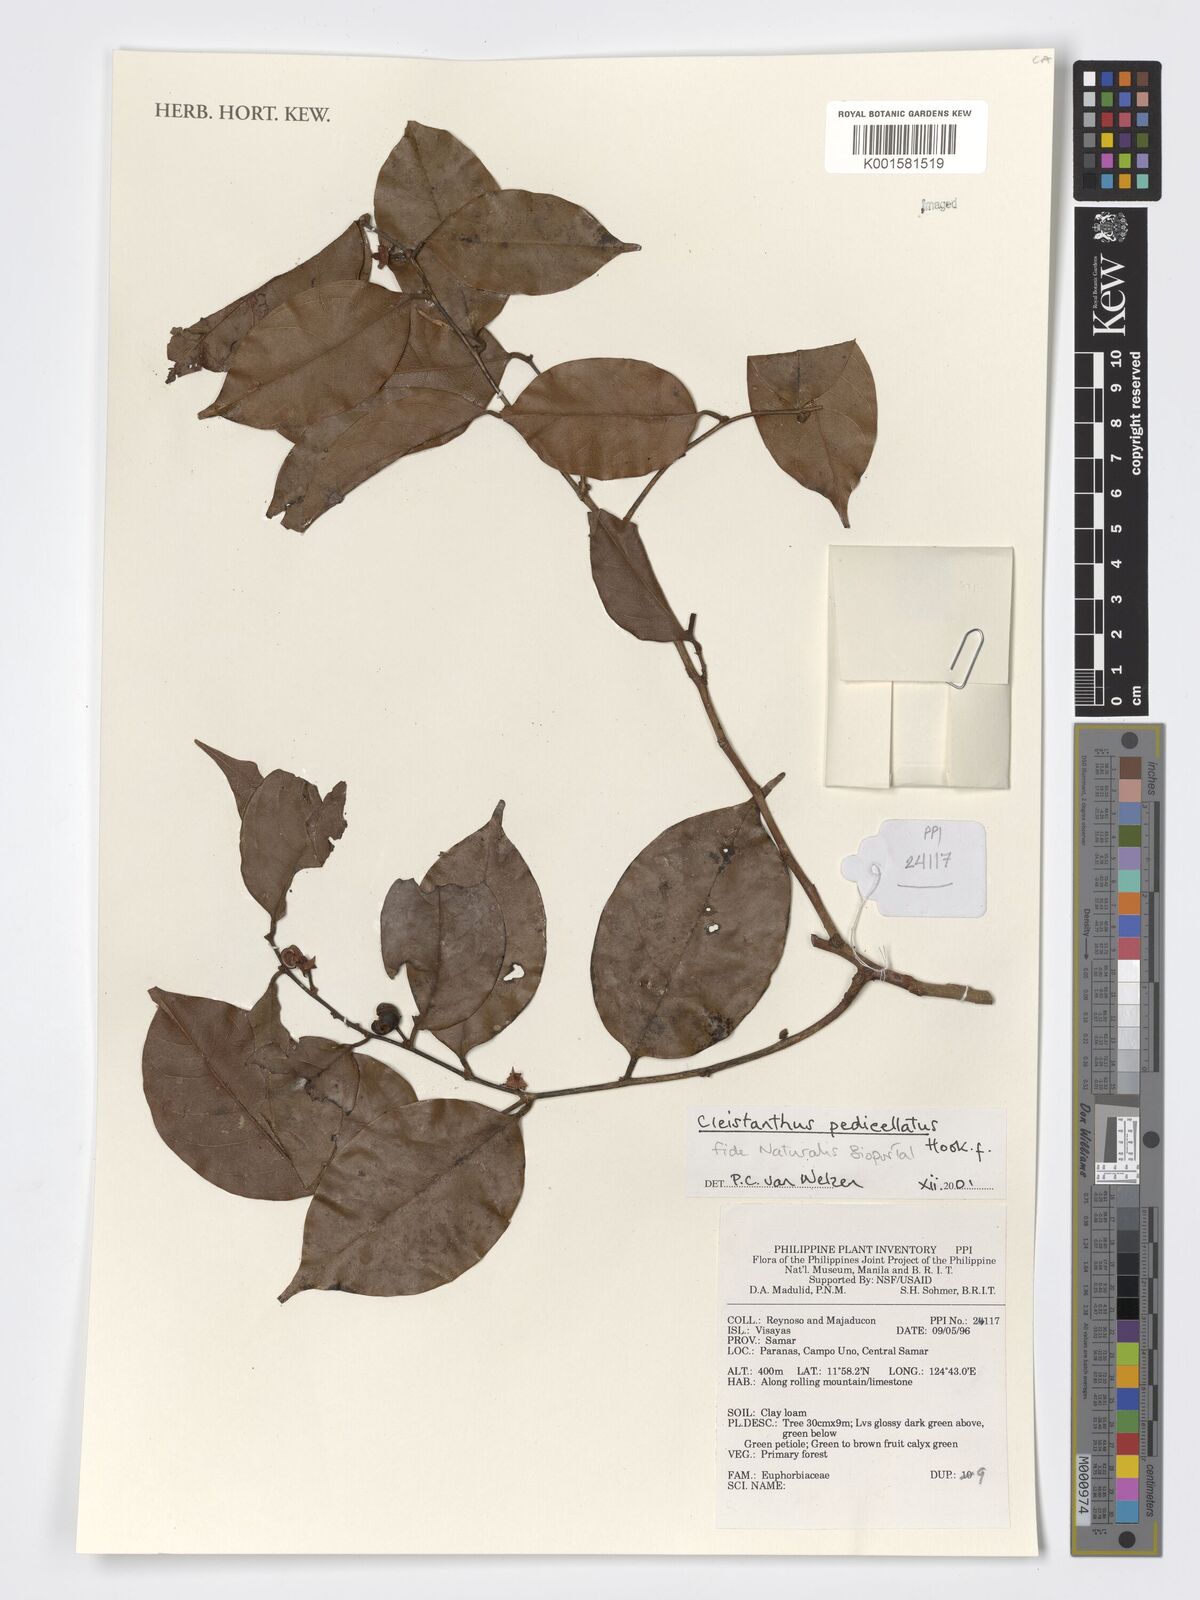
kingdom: Plantae
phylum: Tracheophyta
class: Magnoliopsida
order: Malpighiales
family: Phyllanthaceae
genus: Cleistanthus
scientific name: Cleistanthus pedicellatus
